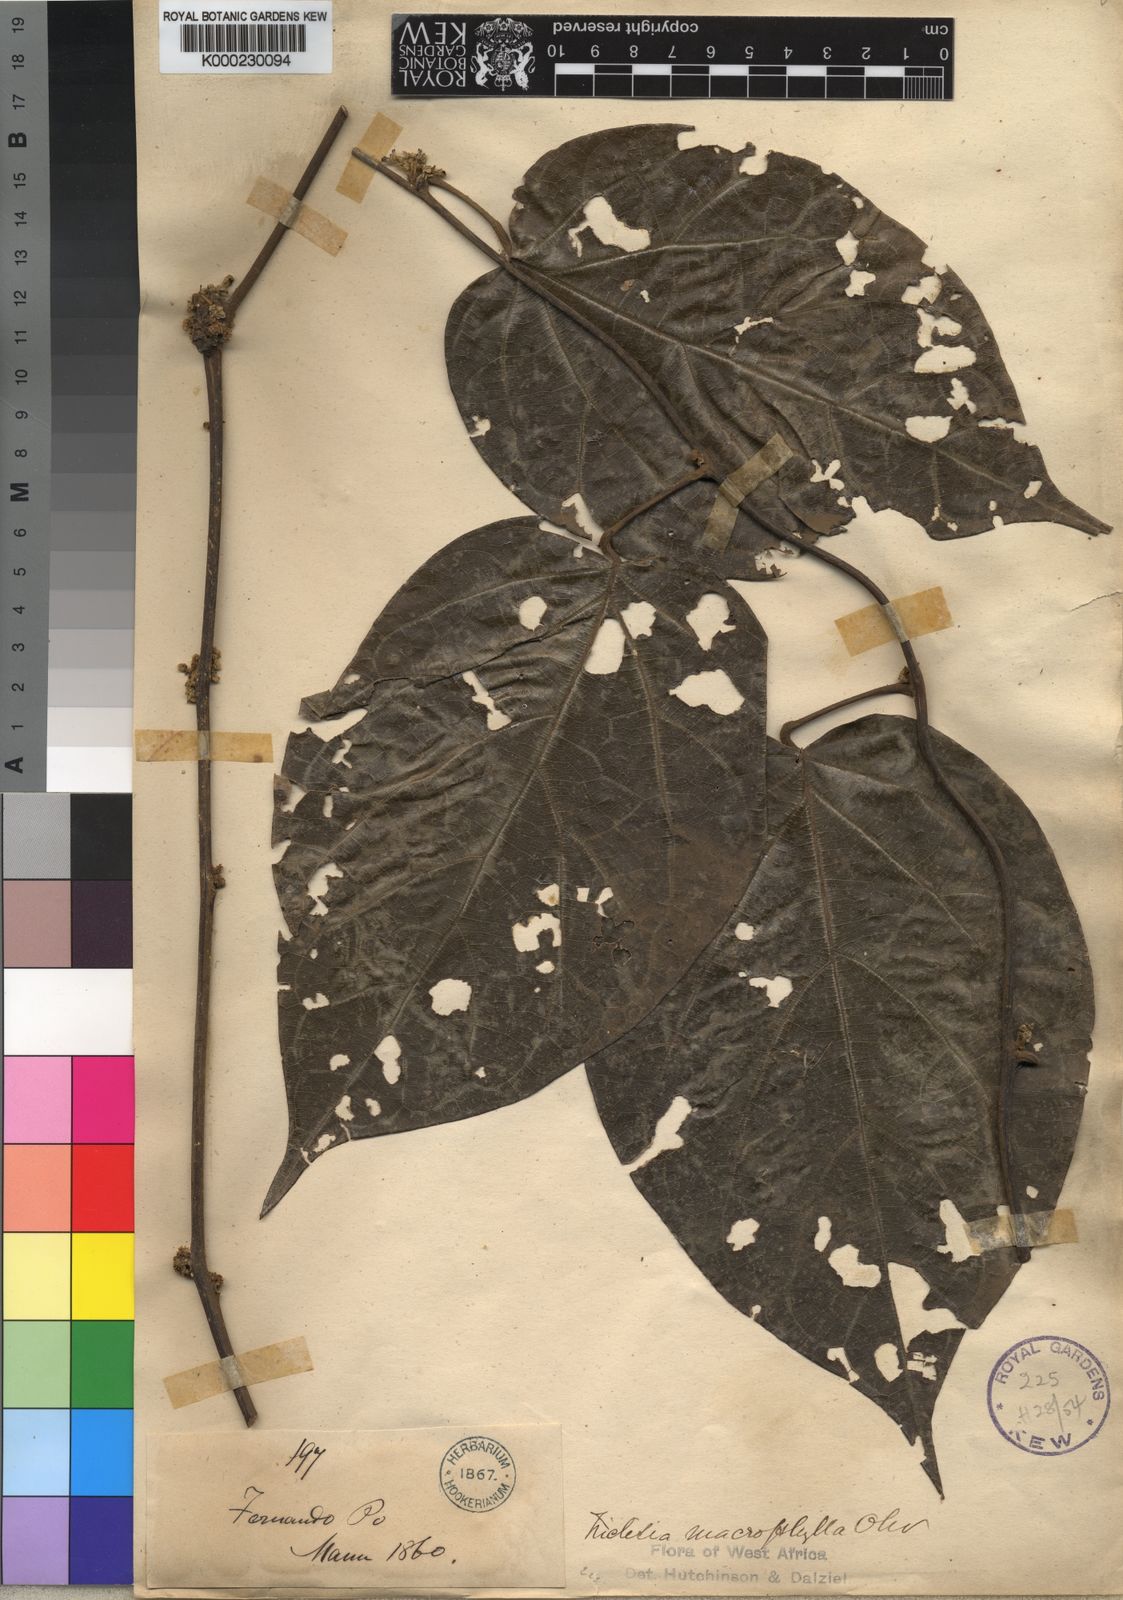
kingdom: Plantae
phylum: Tracheophyta
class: Magnoliopsida
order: Ranunculales
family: Menispermaceae
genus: Triclisia
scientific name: Triclisia macrophylla
